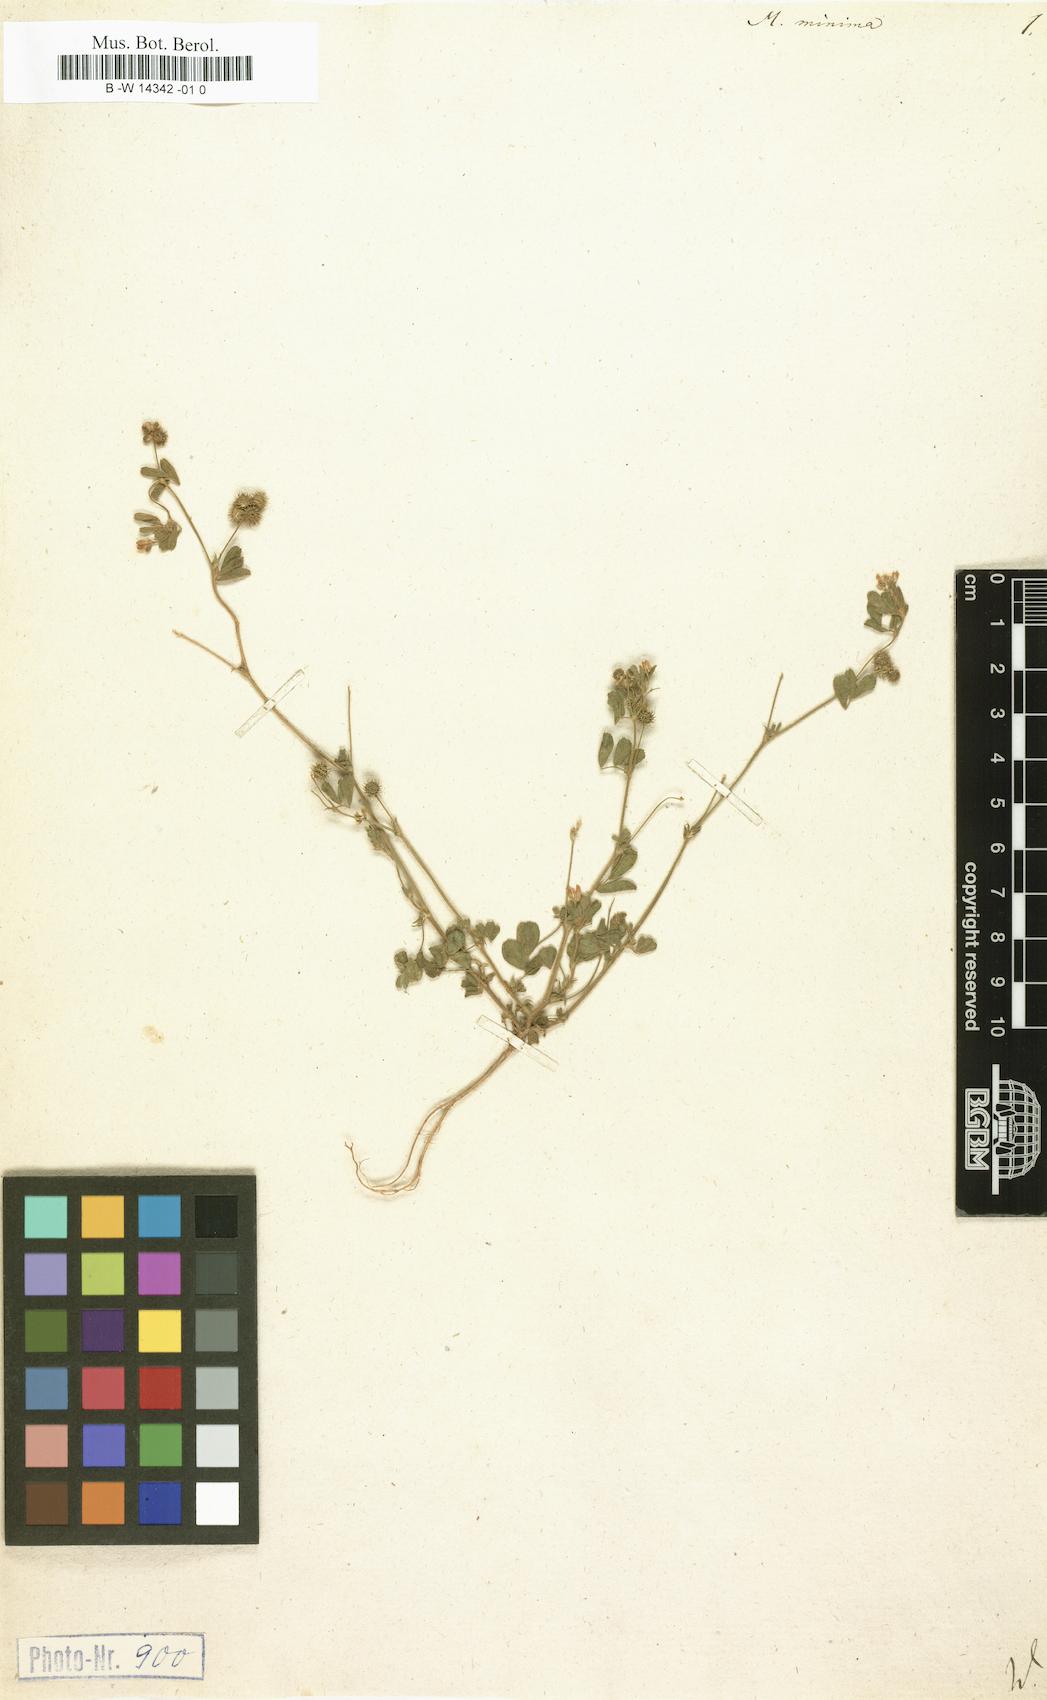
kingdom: Plantae
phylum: Tracheophyta
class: Magnoliopsida
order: Fabales
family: Fabaceae
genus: Medicago
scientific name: Medicago minima
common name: Little bur-clover
